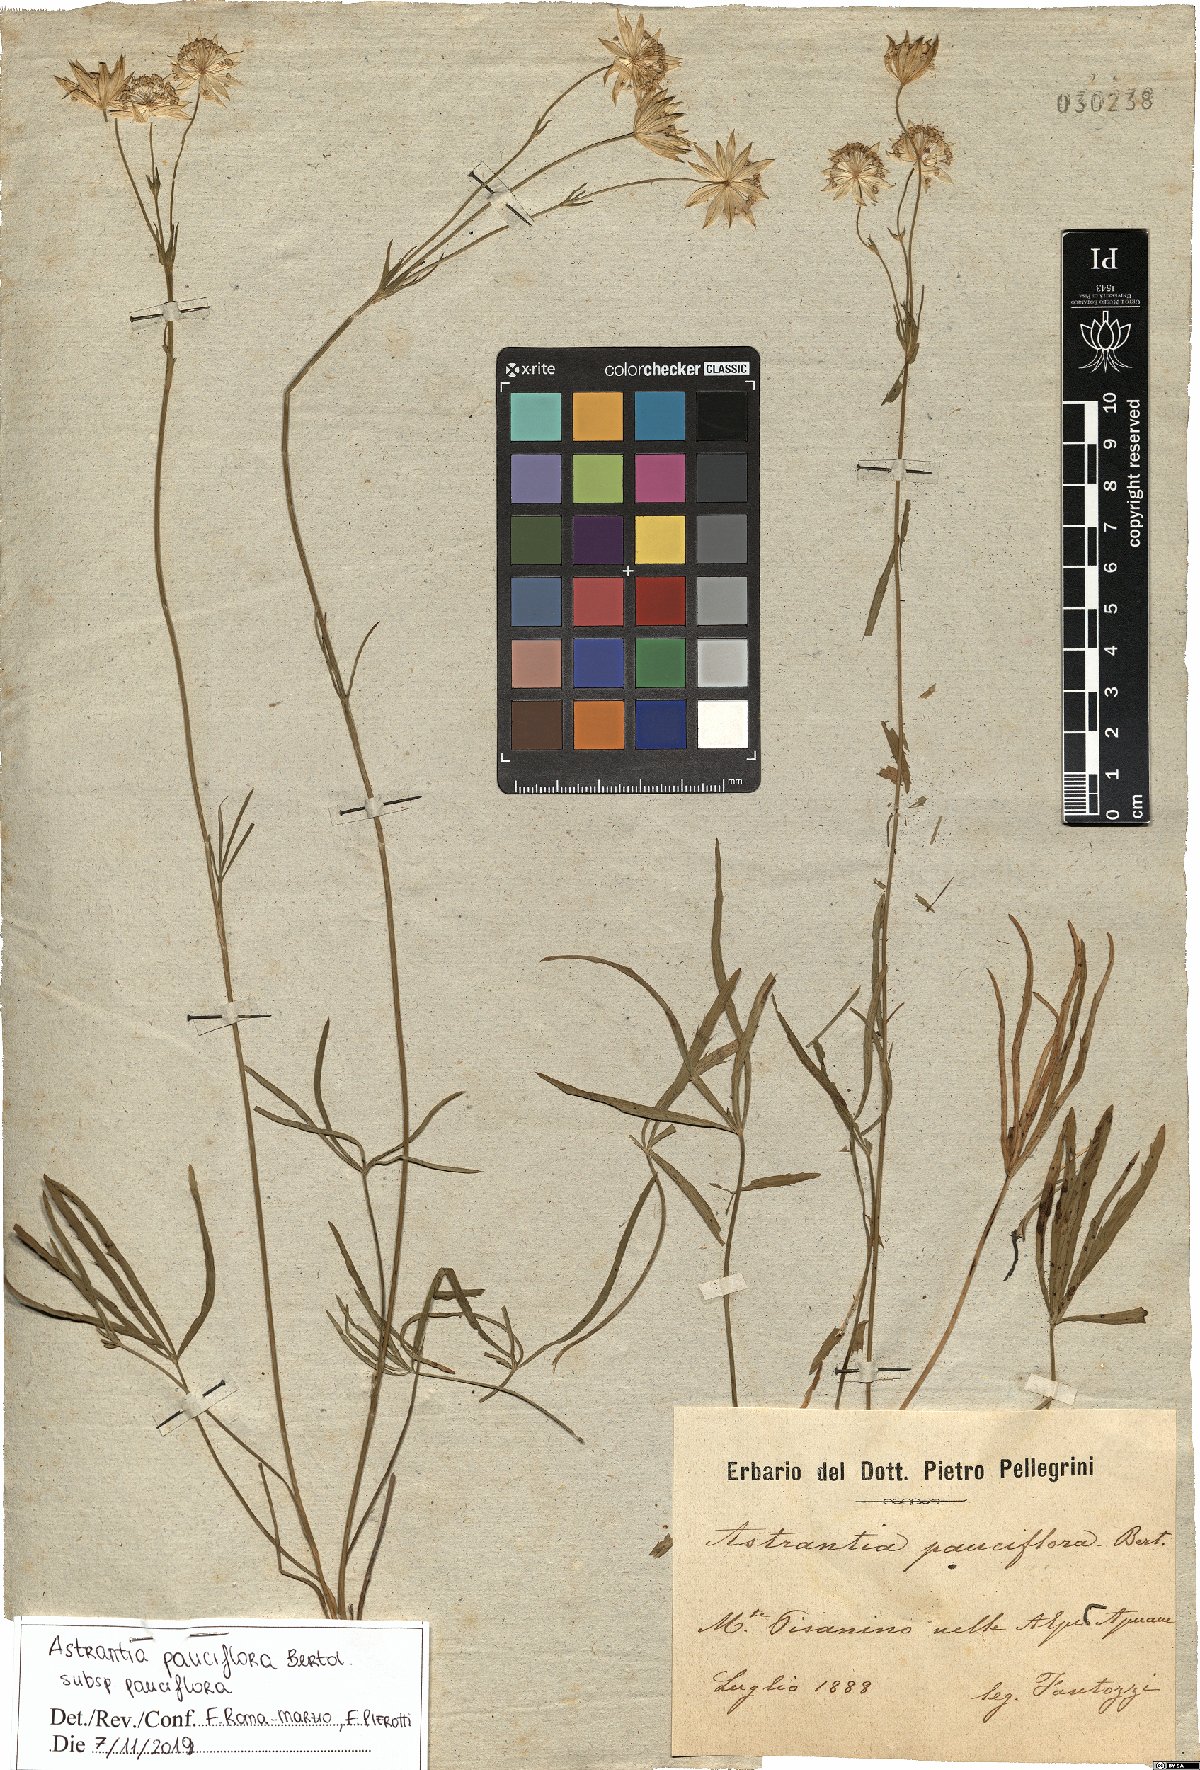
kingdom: Plantae
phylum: Tracheophyta
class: Magnoliopsida
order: Apiales
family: Apiaceae
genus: Astrantia
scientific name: Astrantia pauciflora
